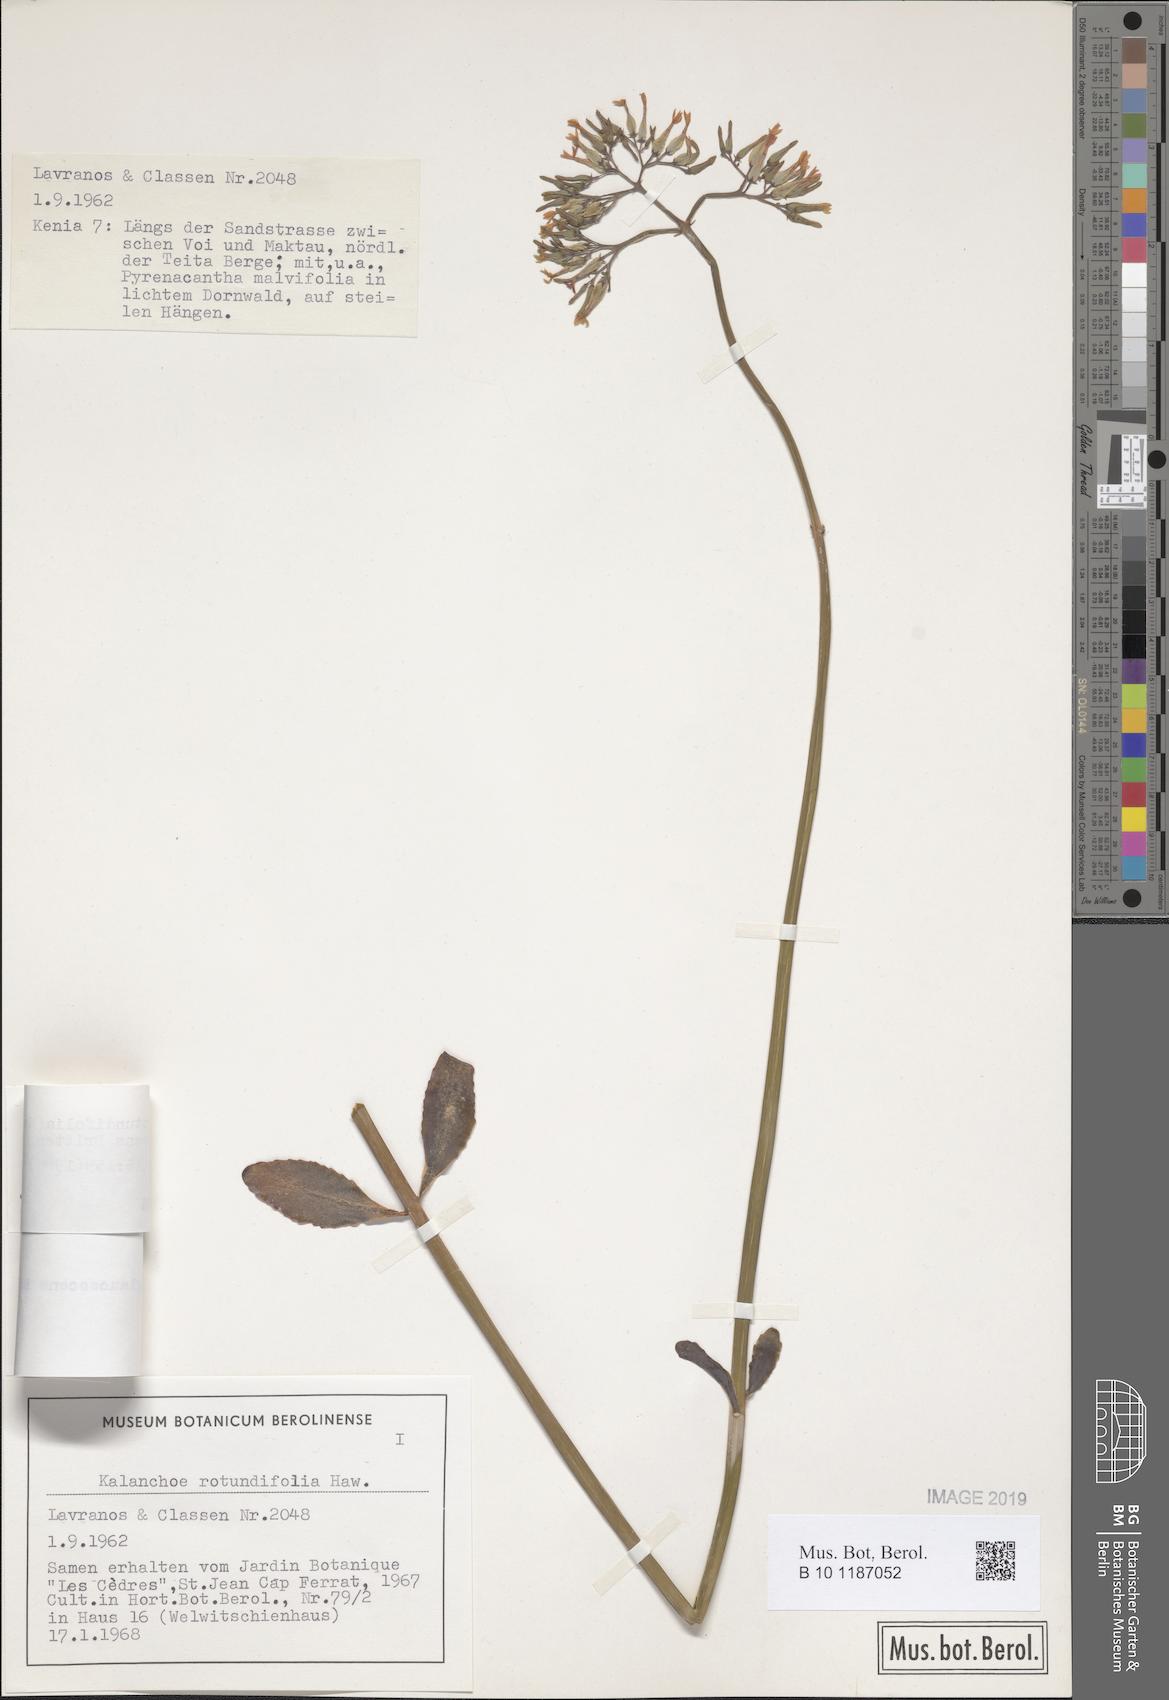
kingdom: Plantae
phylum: Tracheophyta
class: Magnoliopsida
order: Saxifragales
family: Crassulaceae
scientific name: Crassulaceae
